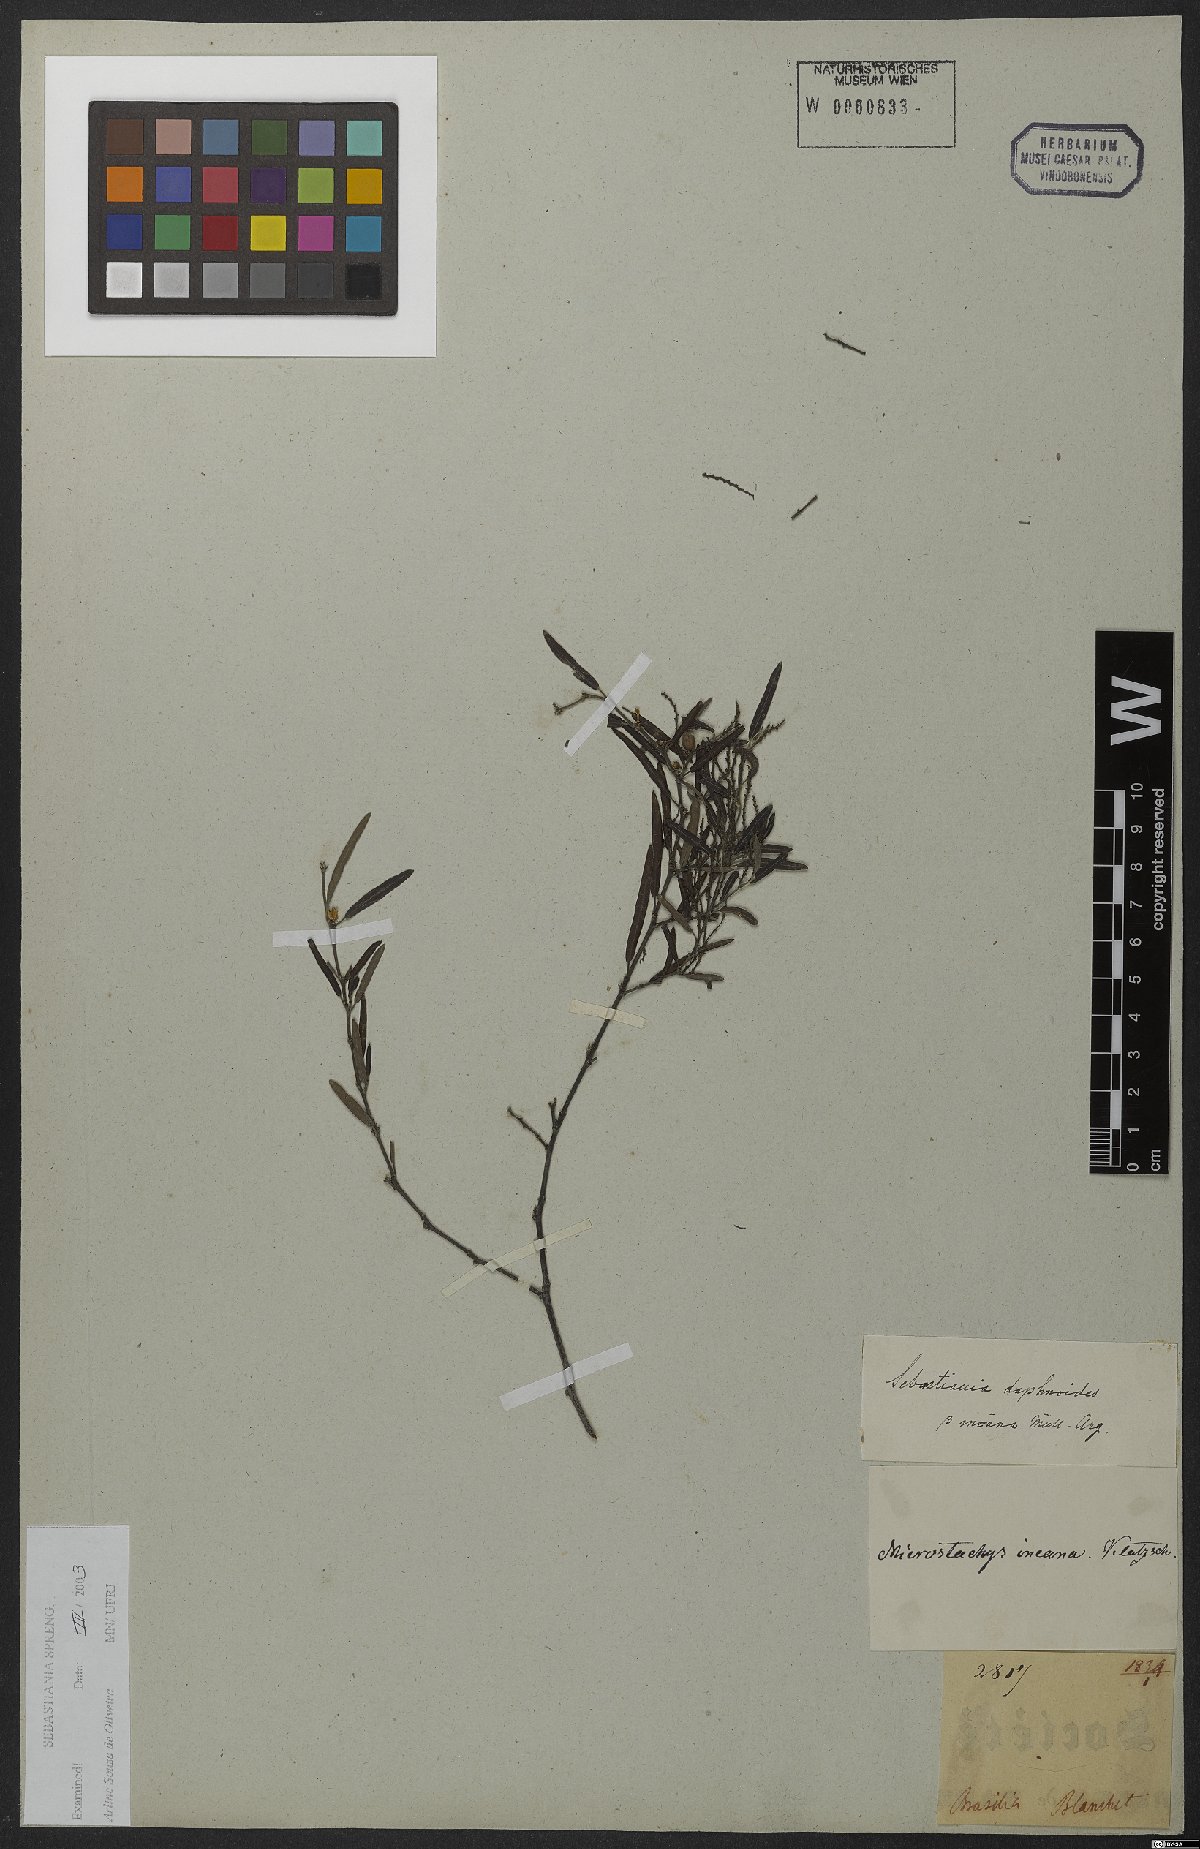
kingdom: Plantae
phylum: Tracheophyta
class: Magnoliopsida
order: Malpighiales
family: Euphorbiaceae
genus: Microstachys
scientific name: Microstachys daphnoides
